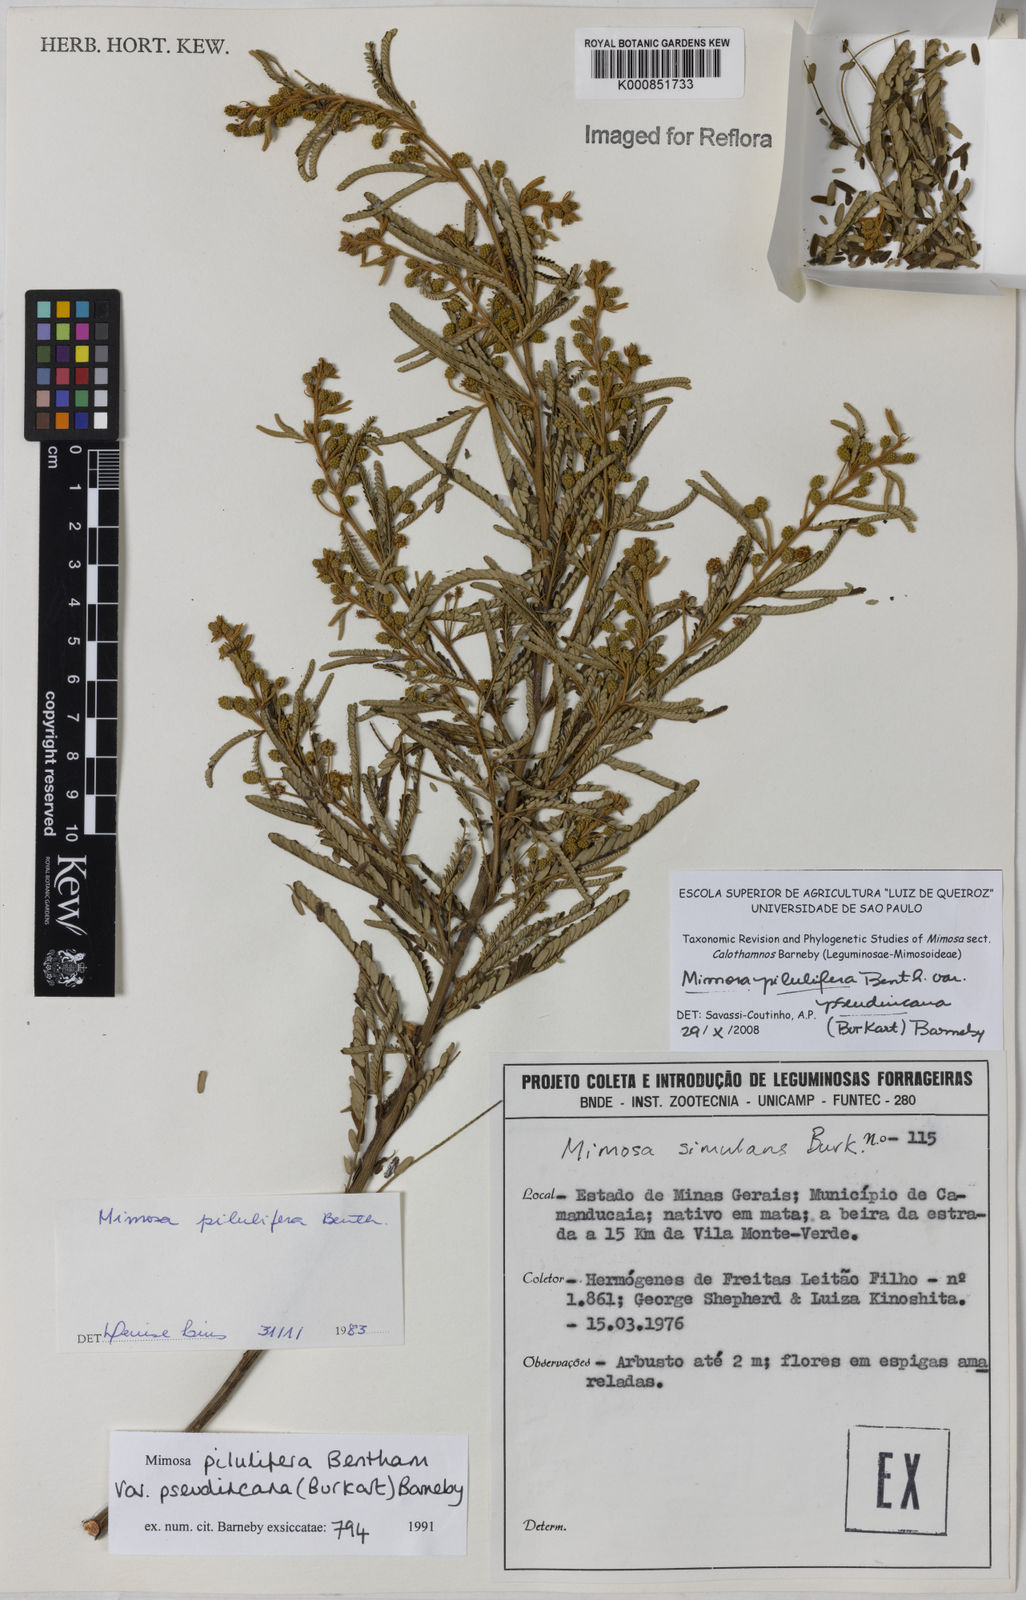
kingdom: Plantae
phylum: Tracheophyta
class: Magnoliopsida
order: Fabales
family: Fabaceae
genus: Mimosa
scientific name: Mimosa pilulifera
